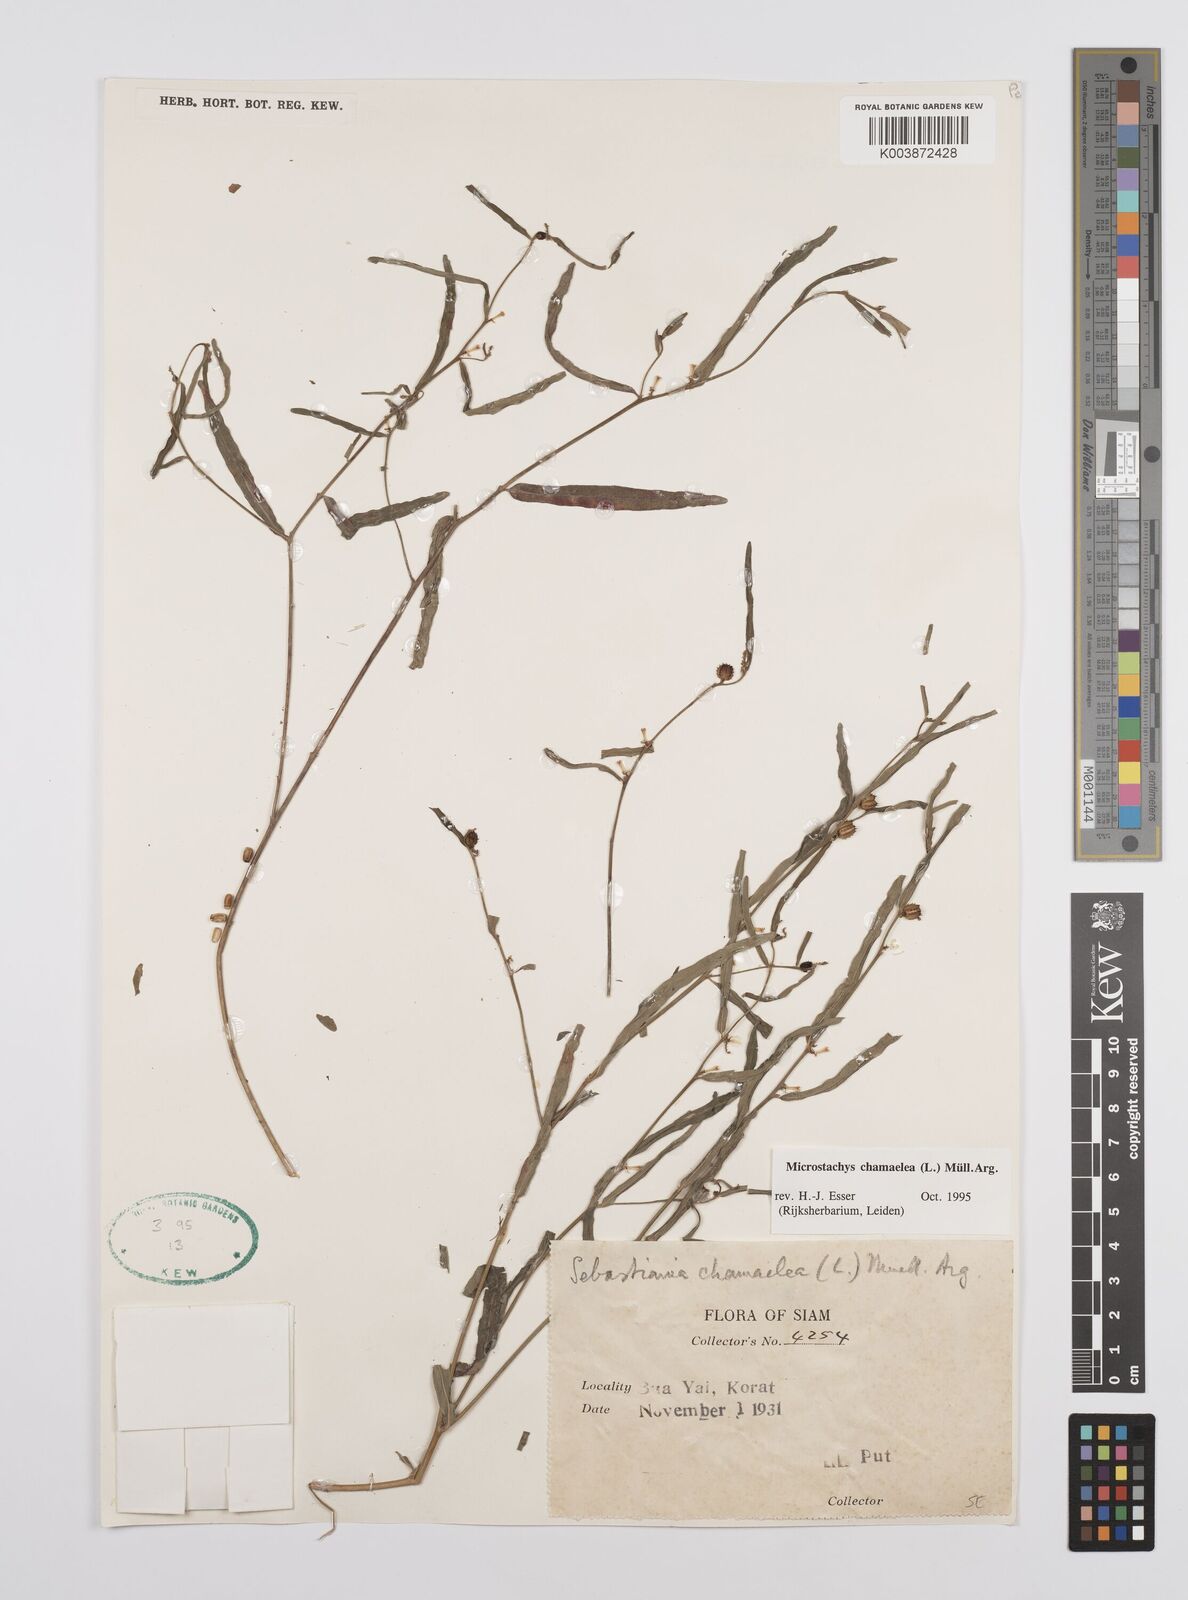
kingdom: Plantae
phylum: Tracheophyta
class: Magnoliopsida
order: Malpighiales
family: Euphorbiaceae
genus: Microstachys
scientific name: Microstachys chamaelea
